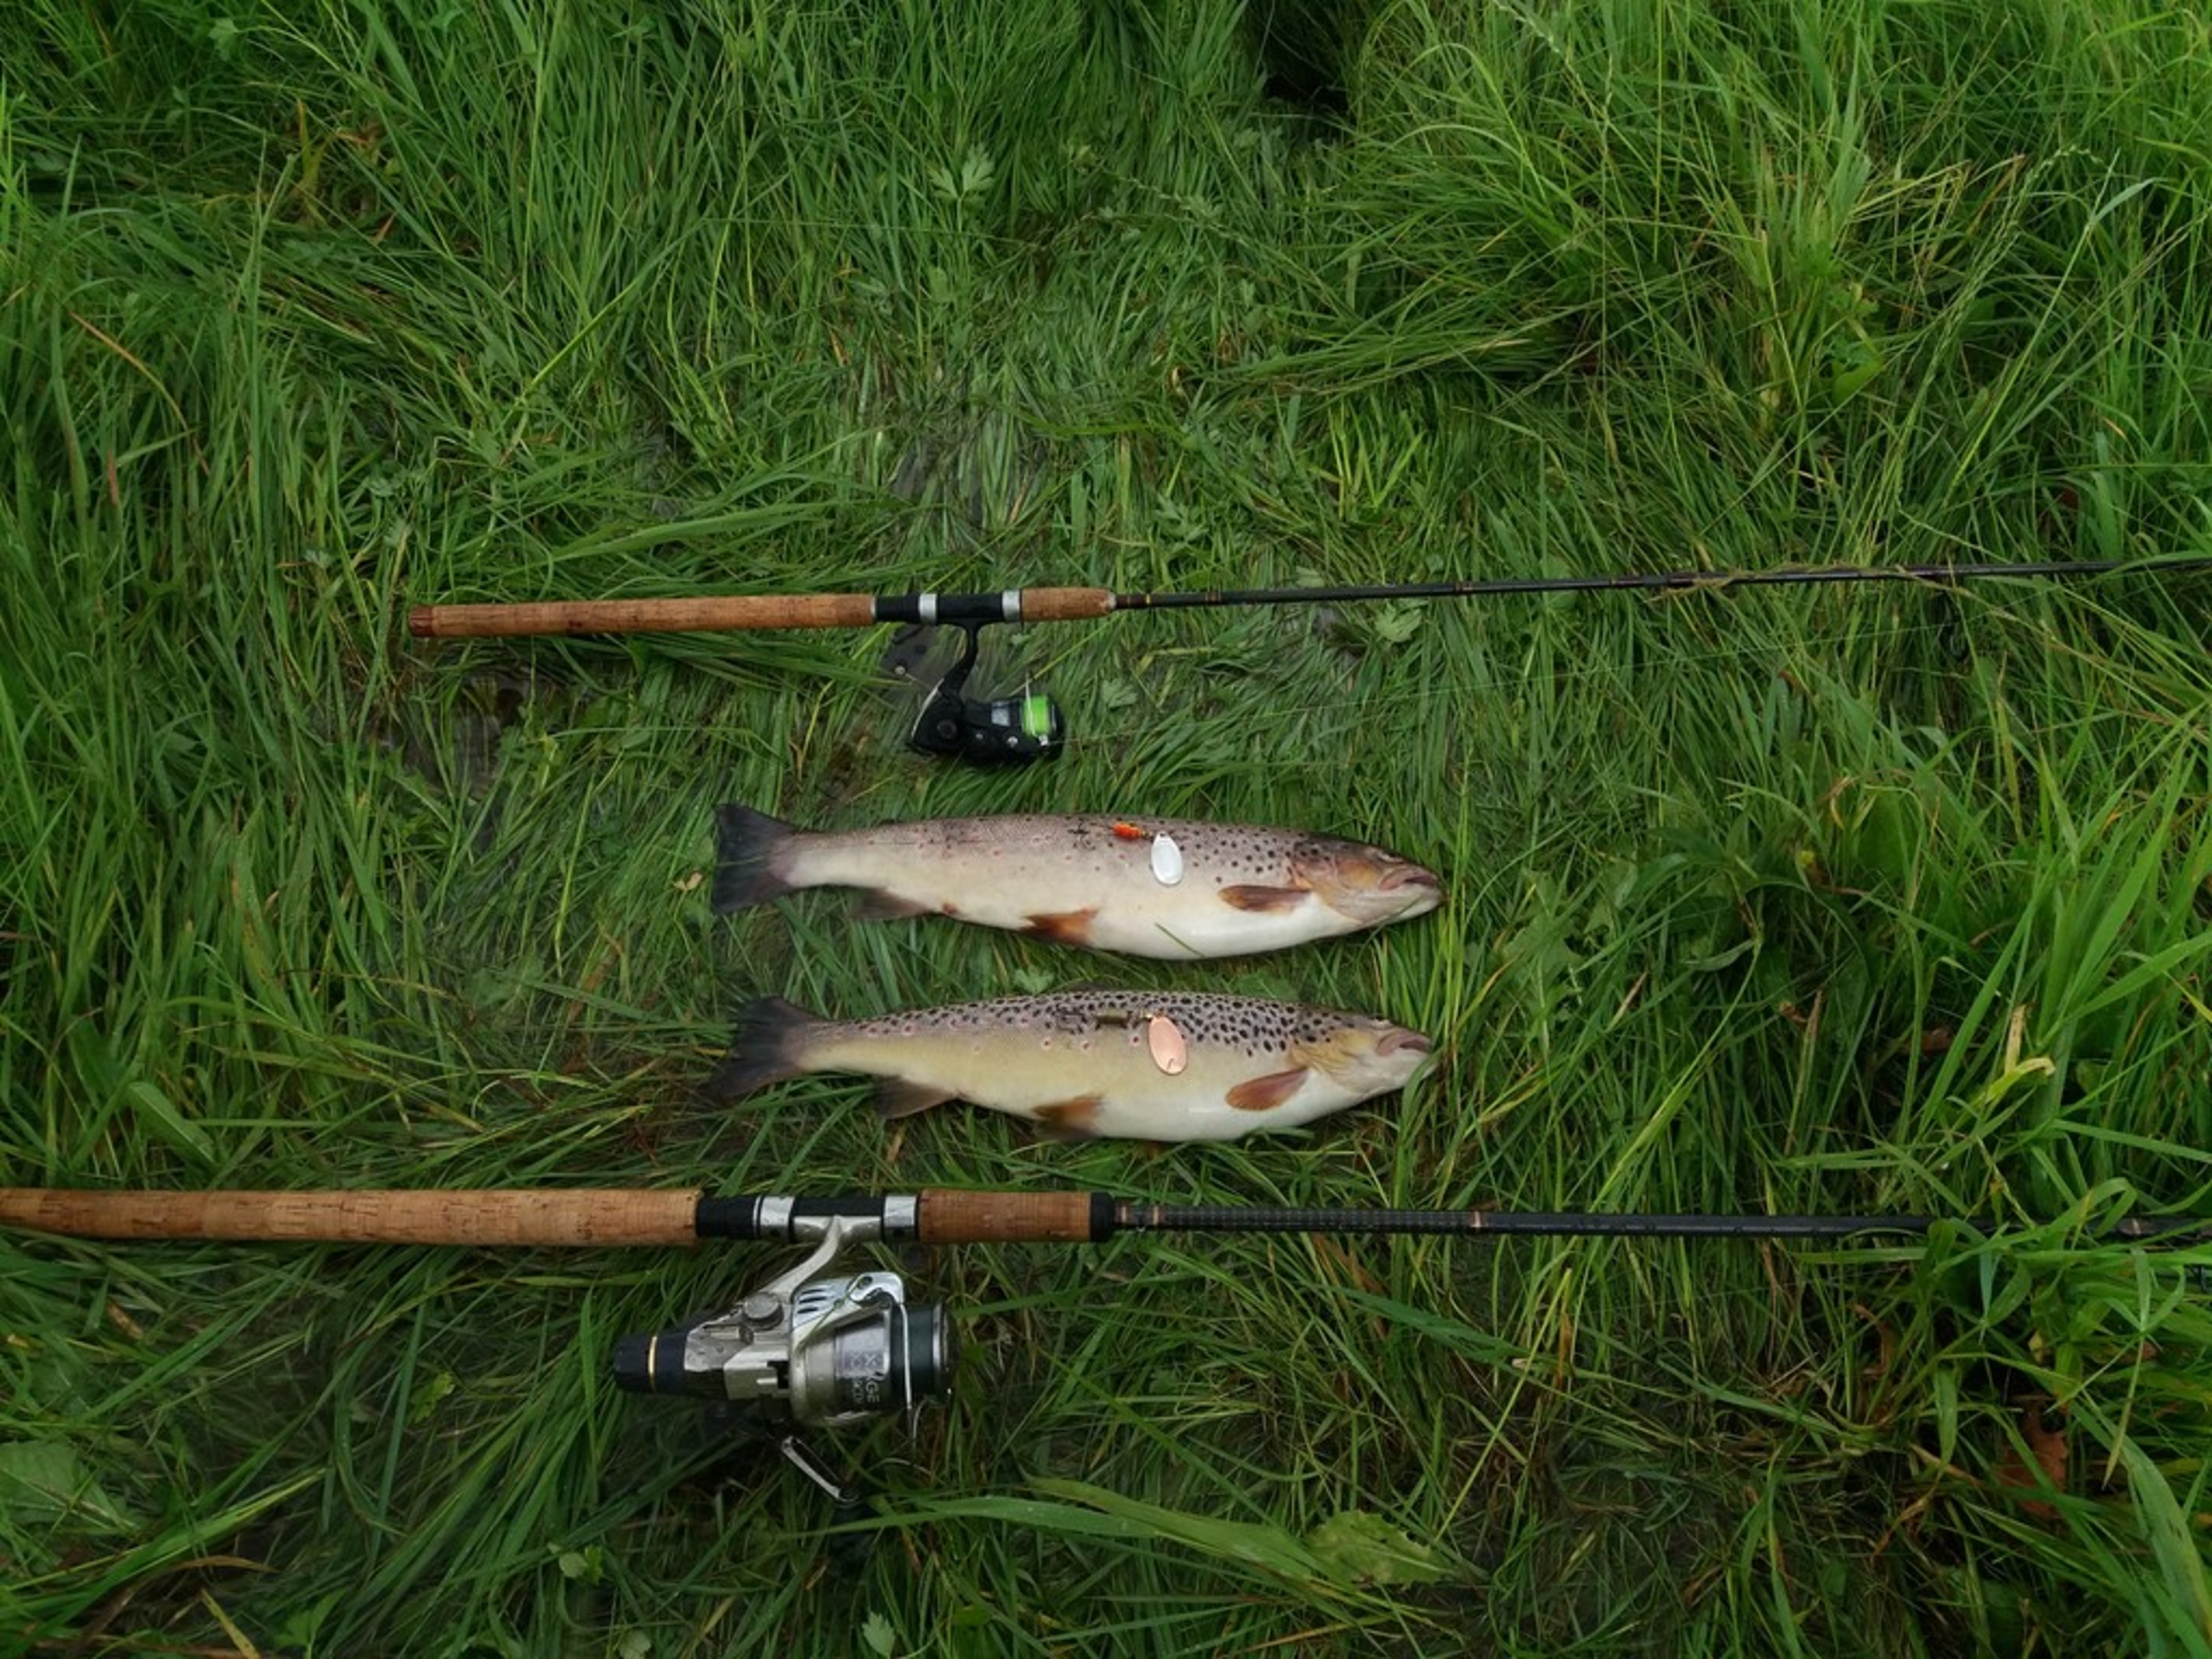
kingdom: Animalia
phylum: Chordata
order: Salmoniformes
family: Salmonidae
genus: Salmo
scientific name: Salmo trutta
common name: Ørred
